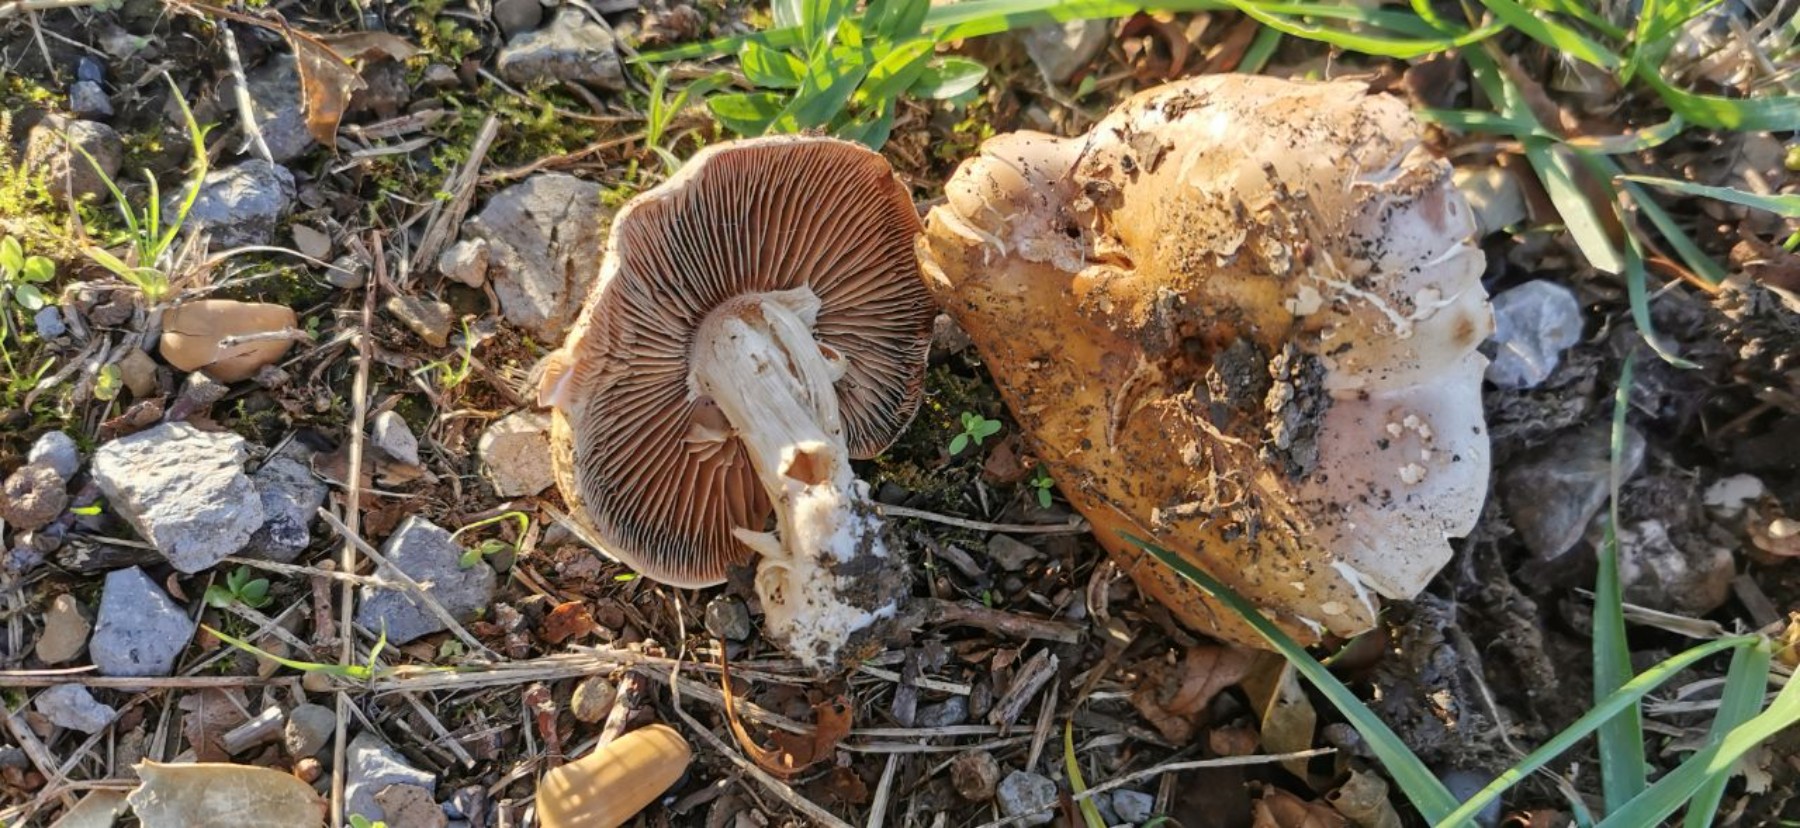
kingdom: Fungi
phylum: Basidiomycota
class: Agaricomycetes
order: Agaricales
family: Cortinariaceae
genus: Cortinarius
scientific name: Cortinarius
